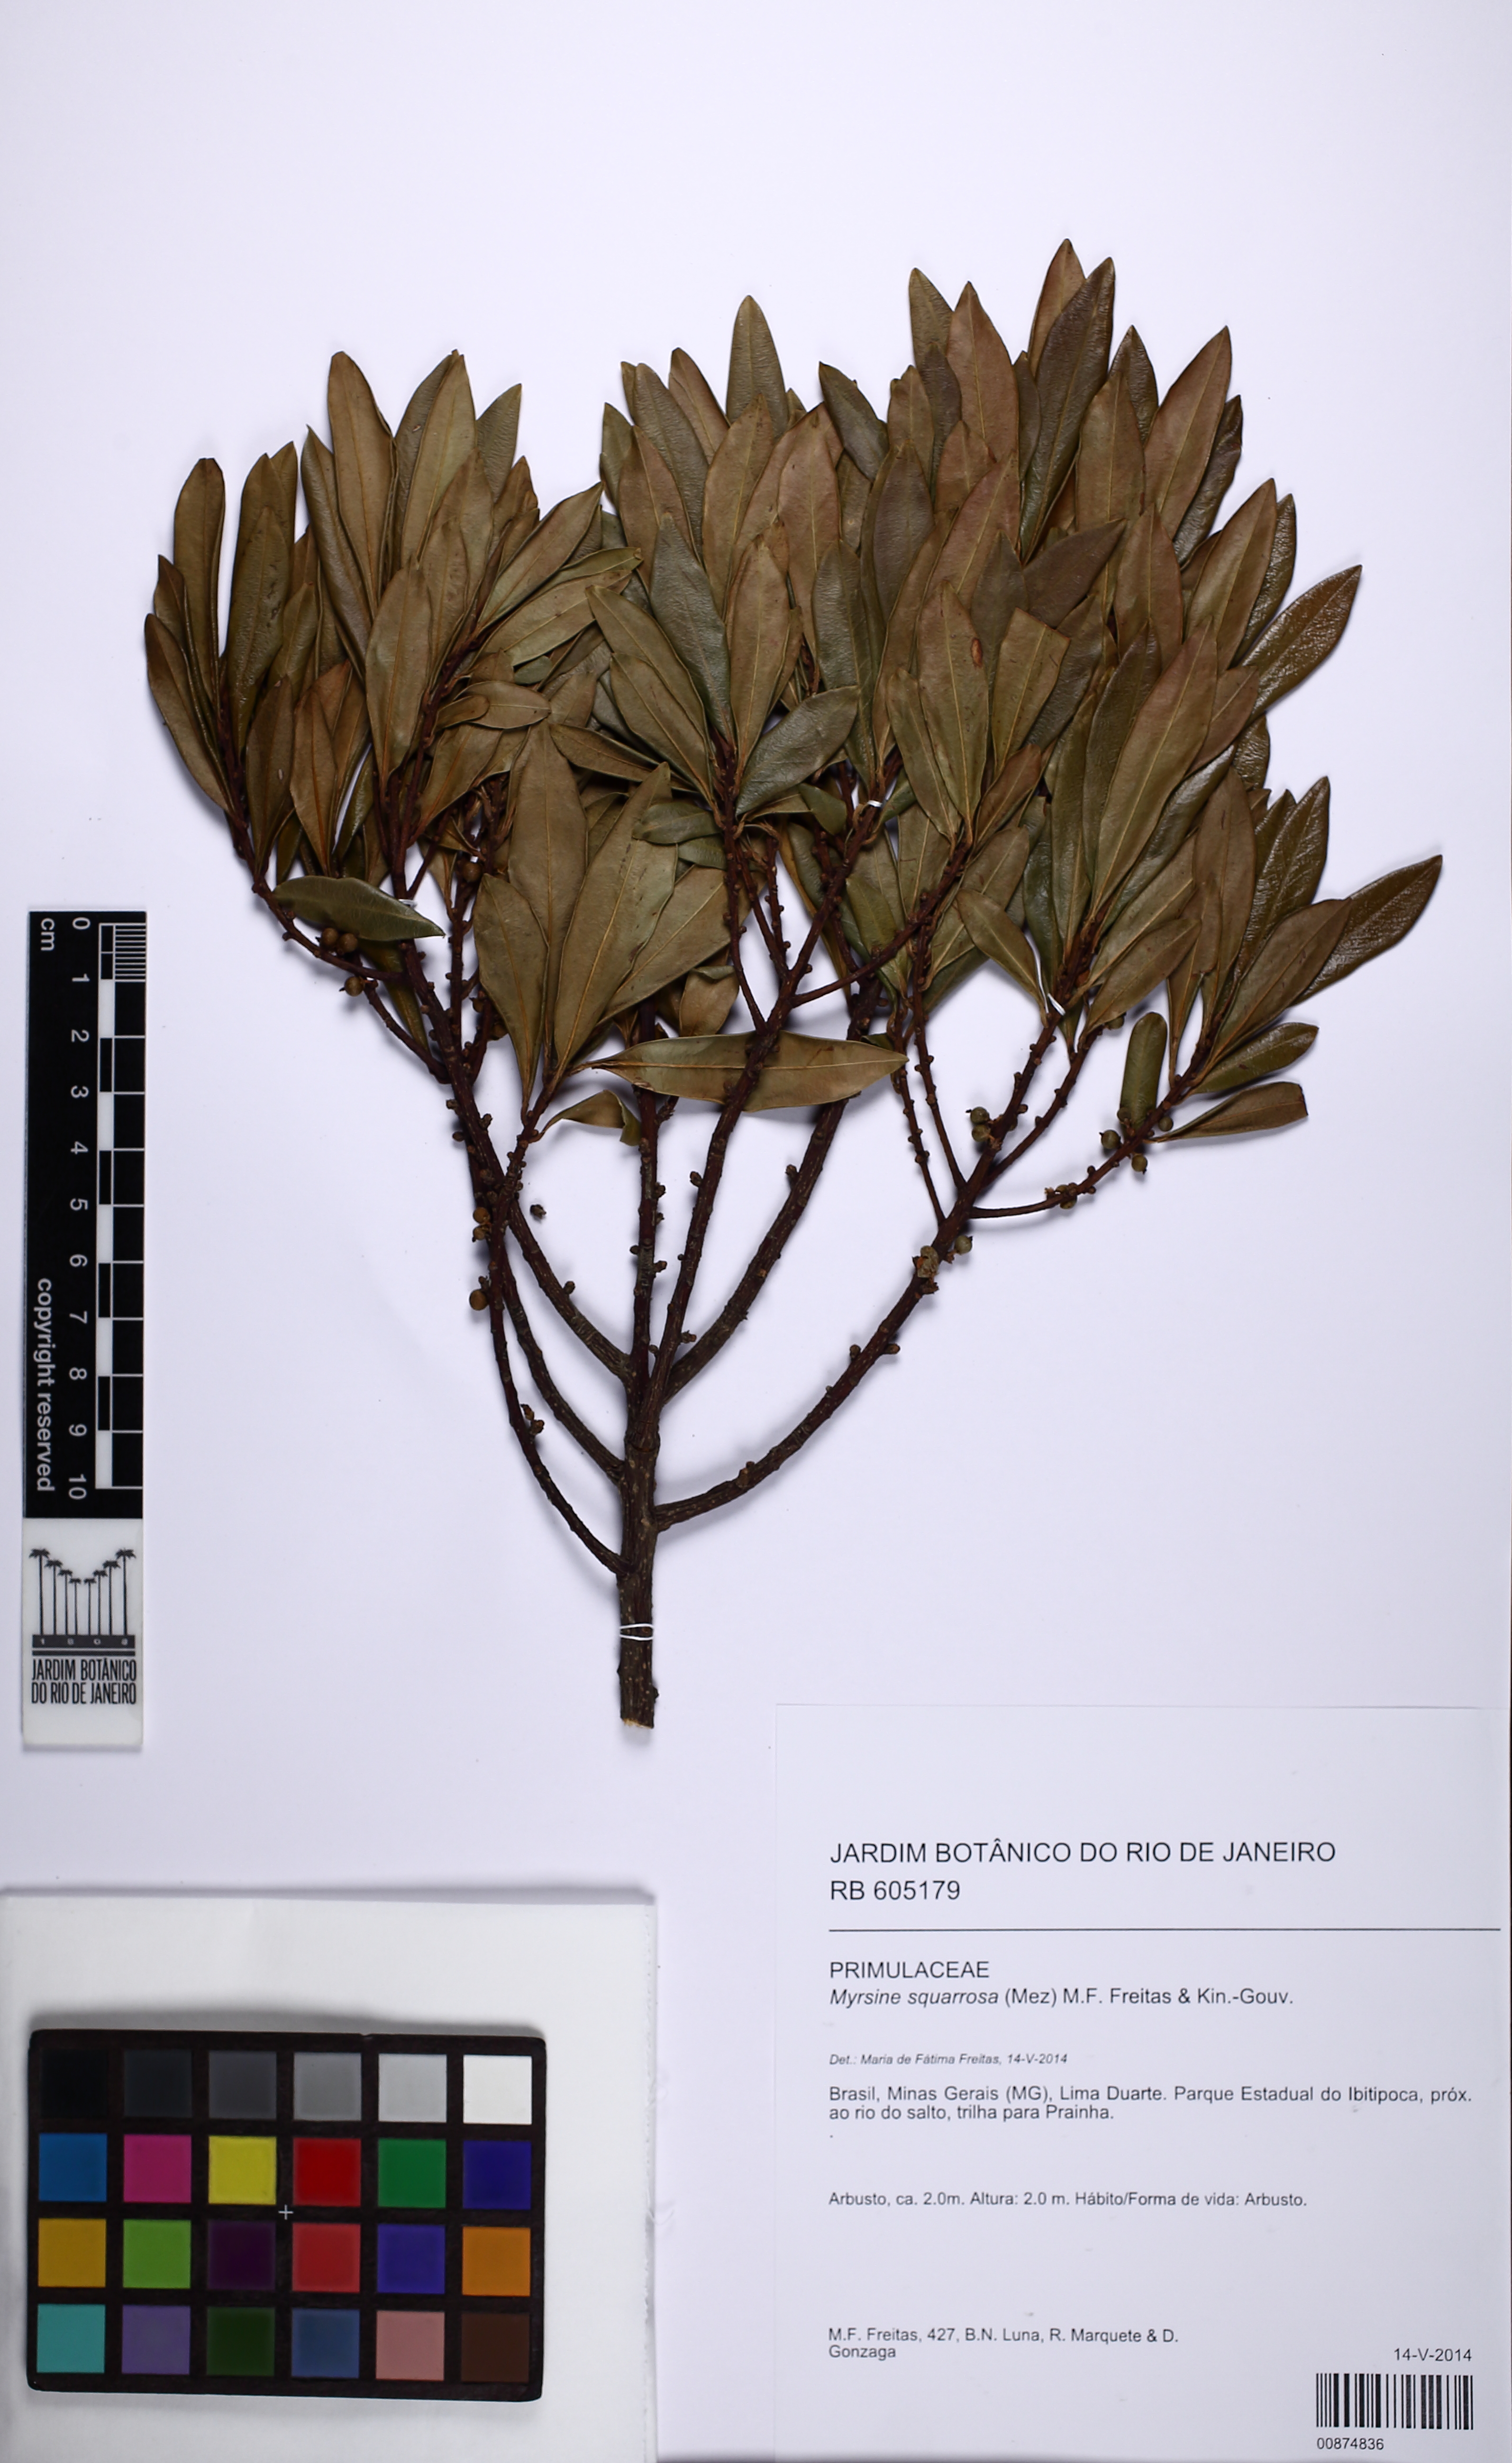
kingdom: Plantae
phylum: Tracheophyta
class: Magnoliopsida
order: Ericales
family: Primulaceae
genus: Myrsine
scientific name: Myrsine squarrosa
